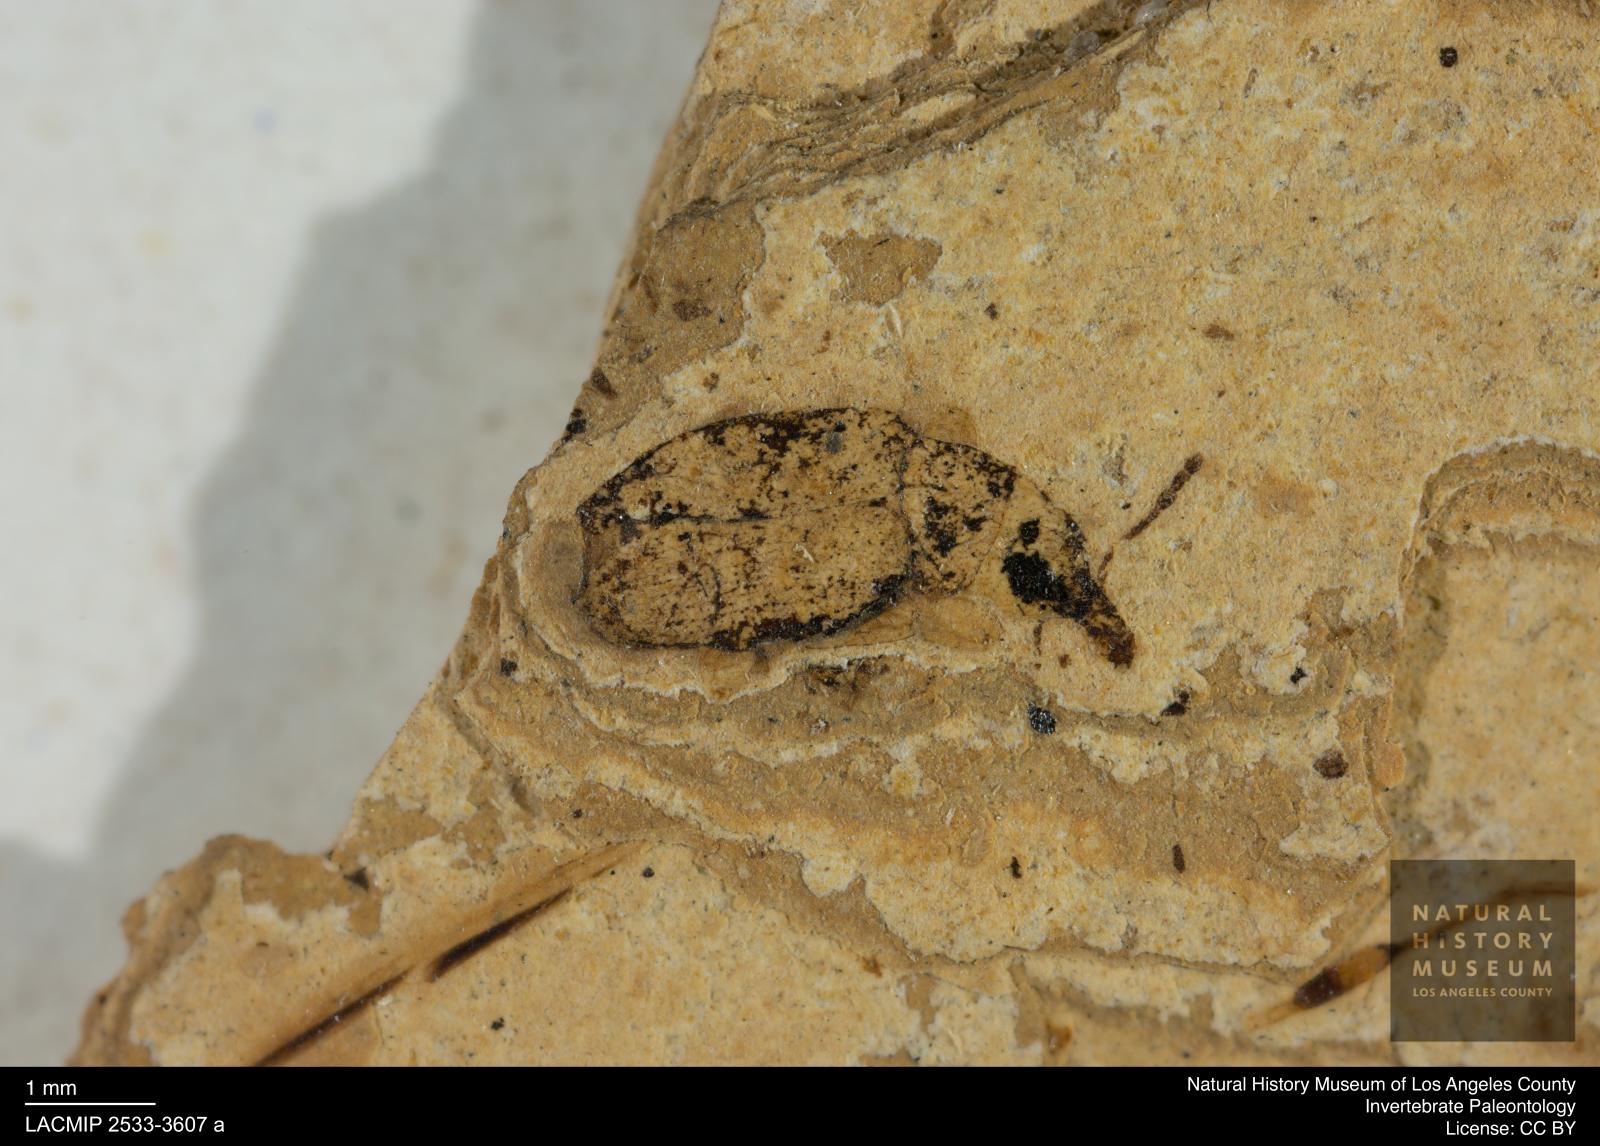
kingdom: Animalia
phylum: Arthropoda
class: Insecta
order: Hemiptera
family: Notonectidae
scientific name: Notonectidae
